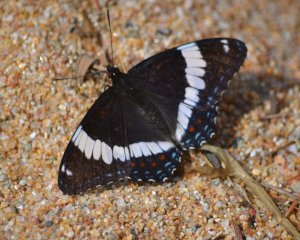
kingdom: Animalia
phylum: Arthropoda
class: Insecta
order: Lepidoptera
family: Nymphalidae
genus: Limenitis
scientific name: Limenitis arthemis
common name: Red-spotted Admiral
